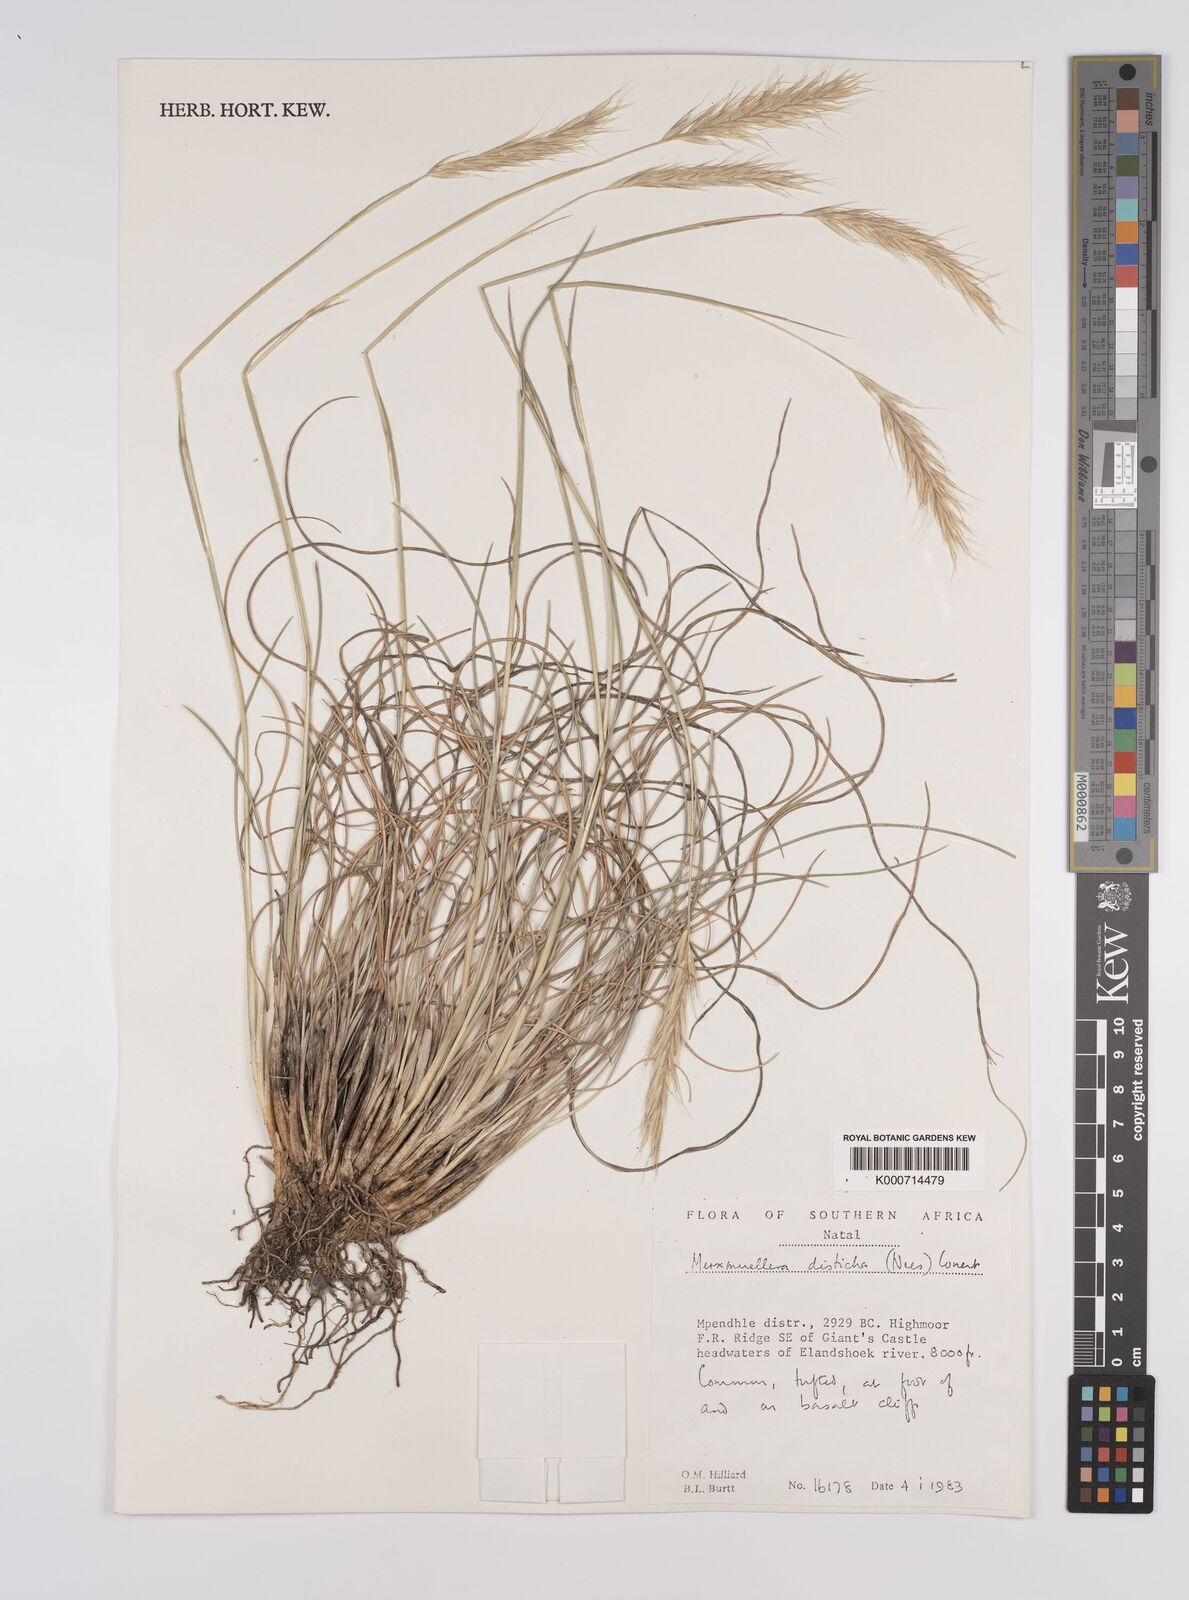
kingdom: Plantae
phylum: Tracheophyta
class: Liliopsida
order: Poales
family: Poaceae
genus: Tenaxia
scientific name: Tenaxia disticha
